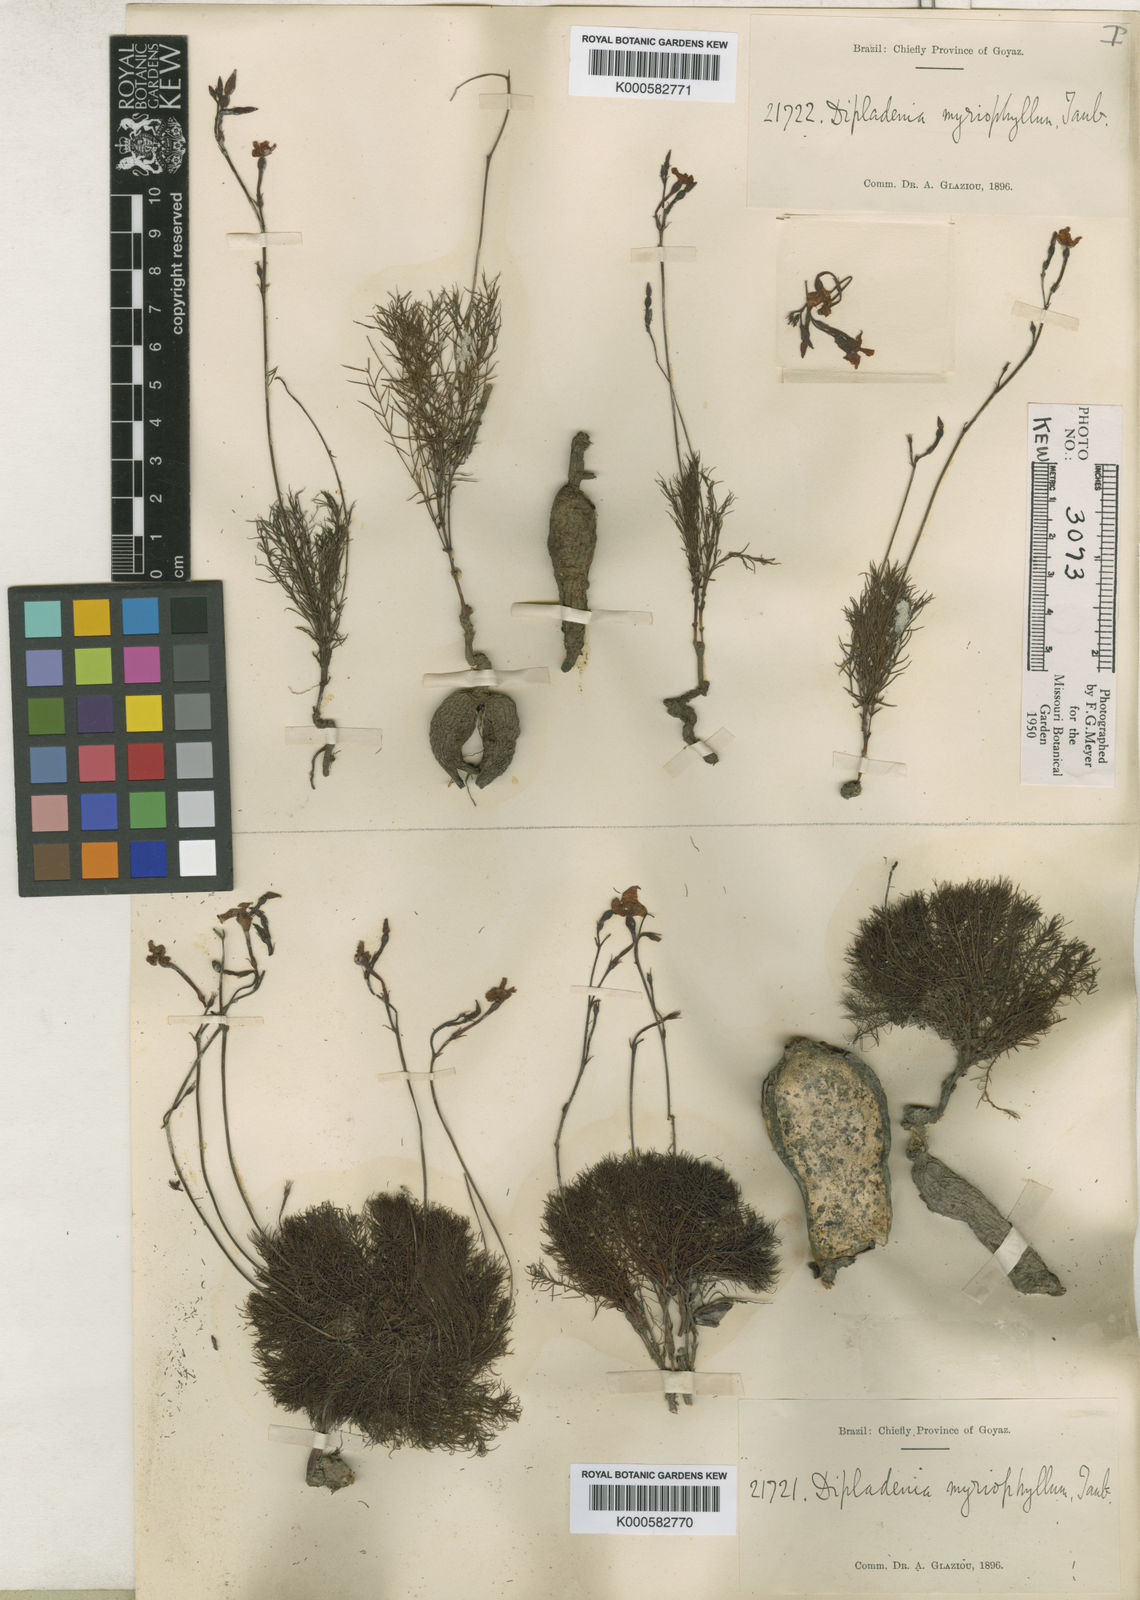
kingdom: Plantae
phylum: Tracheophyta
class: Magnoliopsida
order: Gentianales
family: Apocynaceae
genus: Mandevilla
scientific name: Mandevilla tenuifolia
